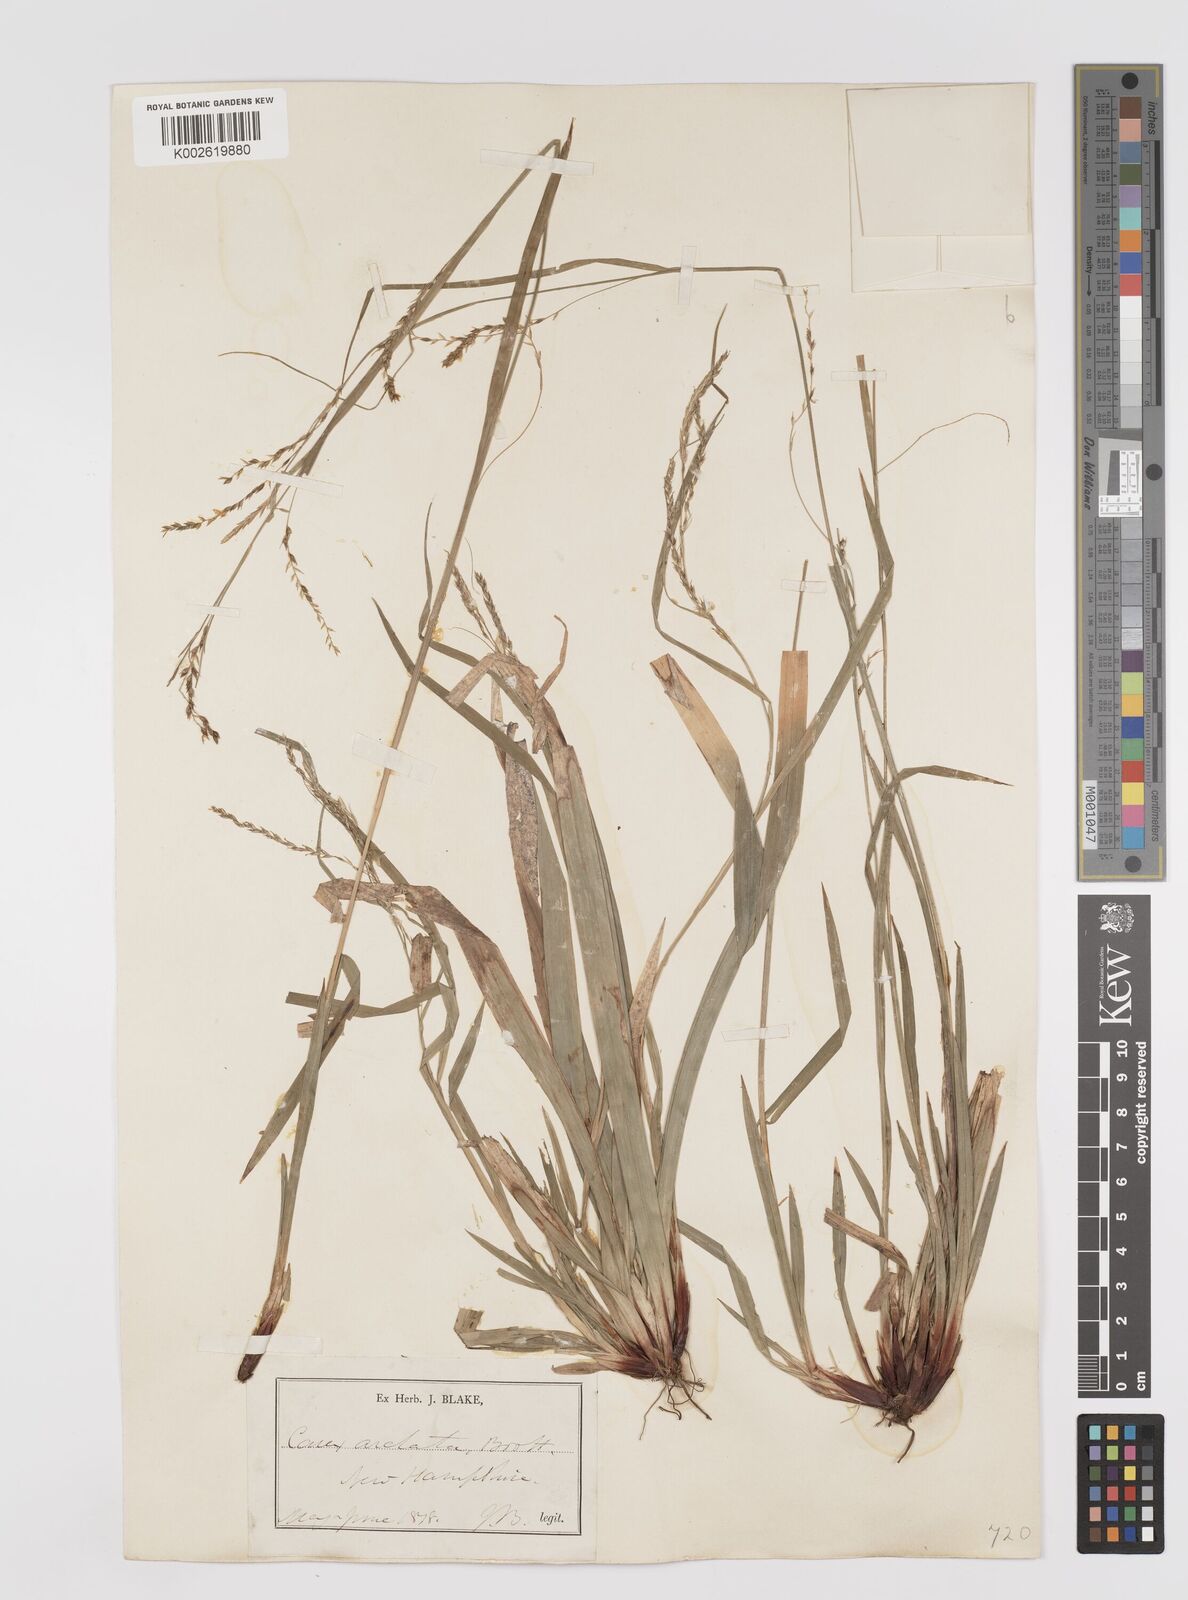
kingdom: Plantae
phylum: Tracheophyta
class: Liliopsida
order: Poales
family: Cyperaceae
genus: Carex
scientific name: Carex arctata
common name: Black sedge
